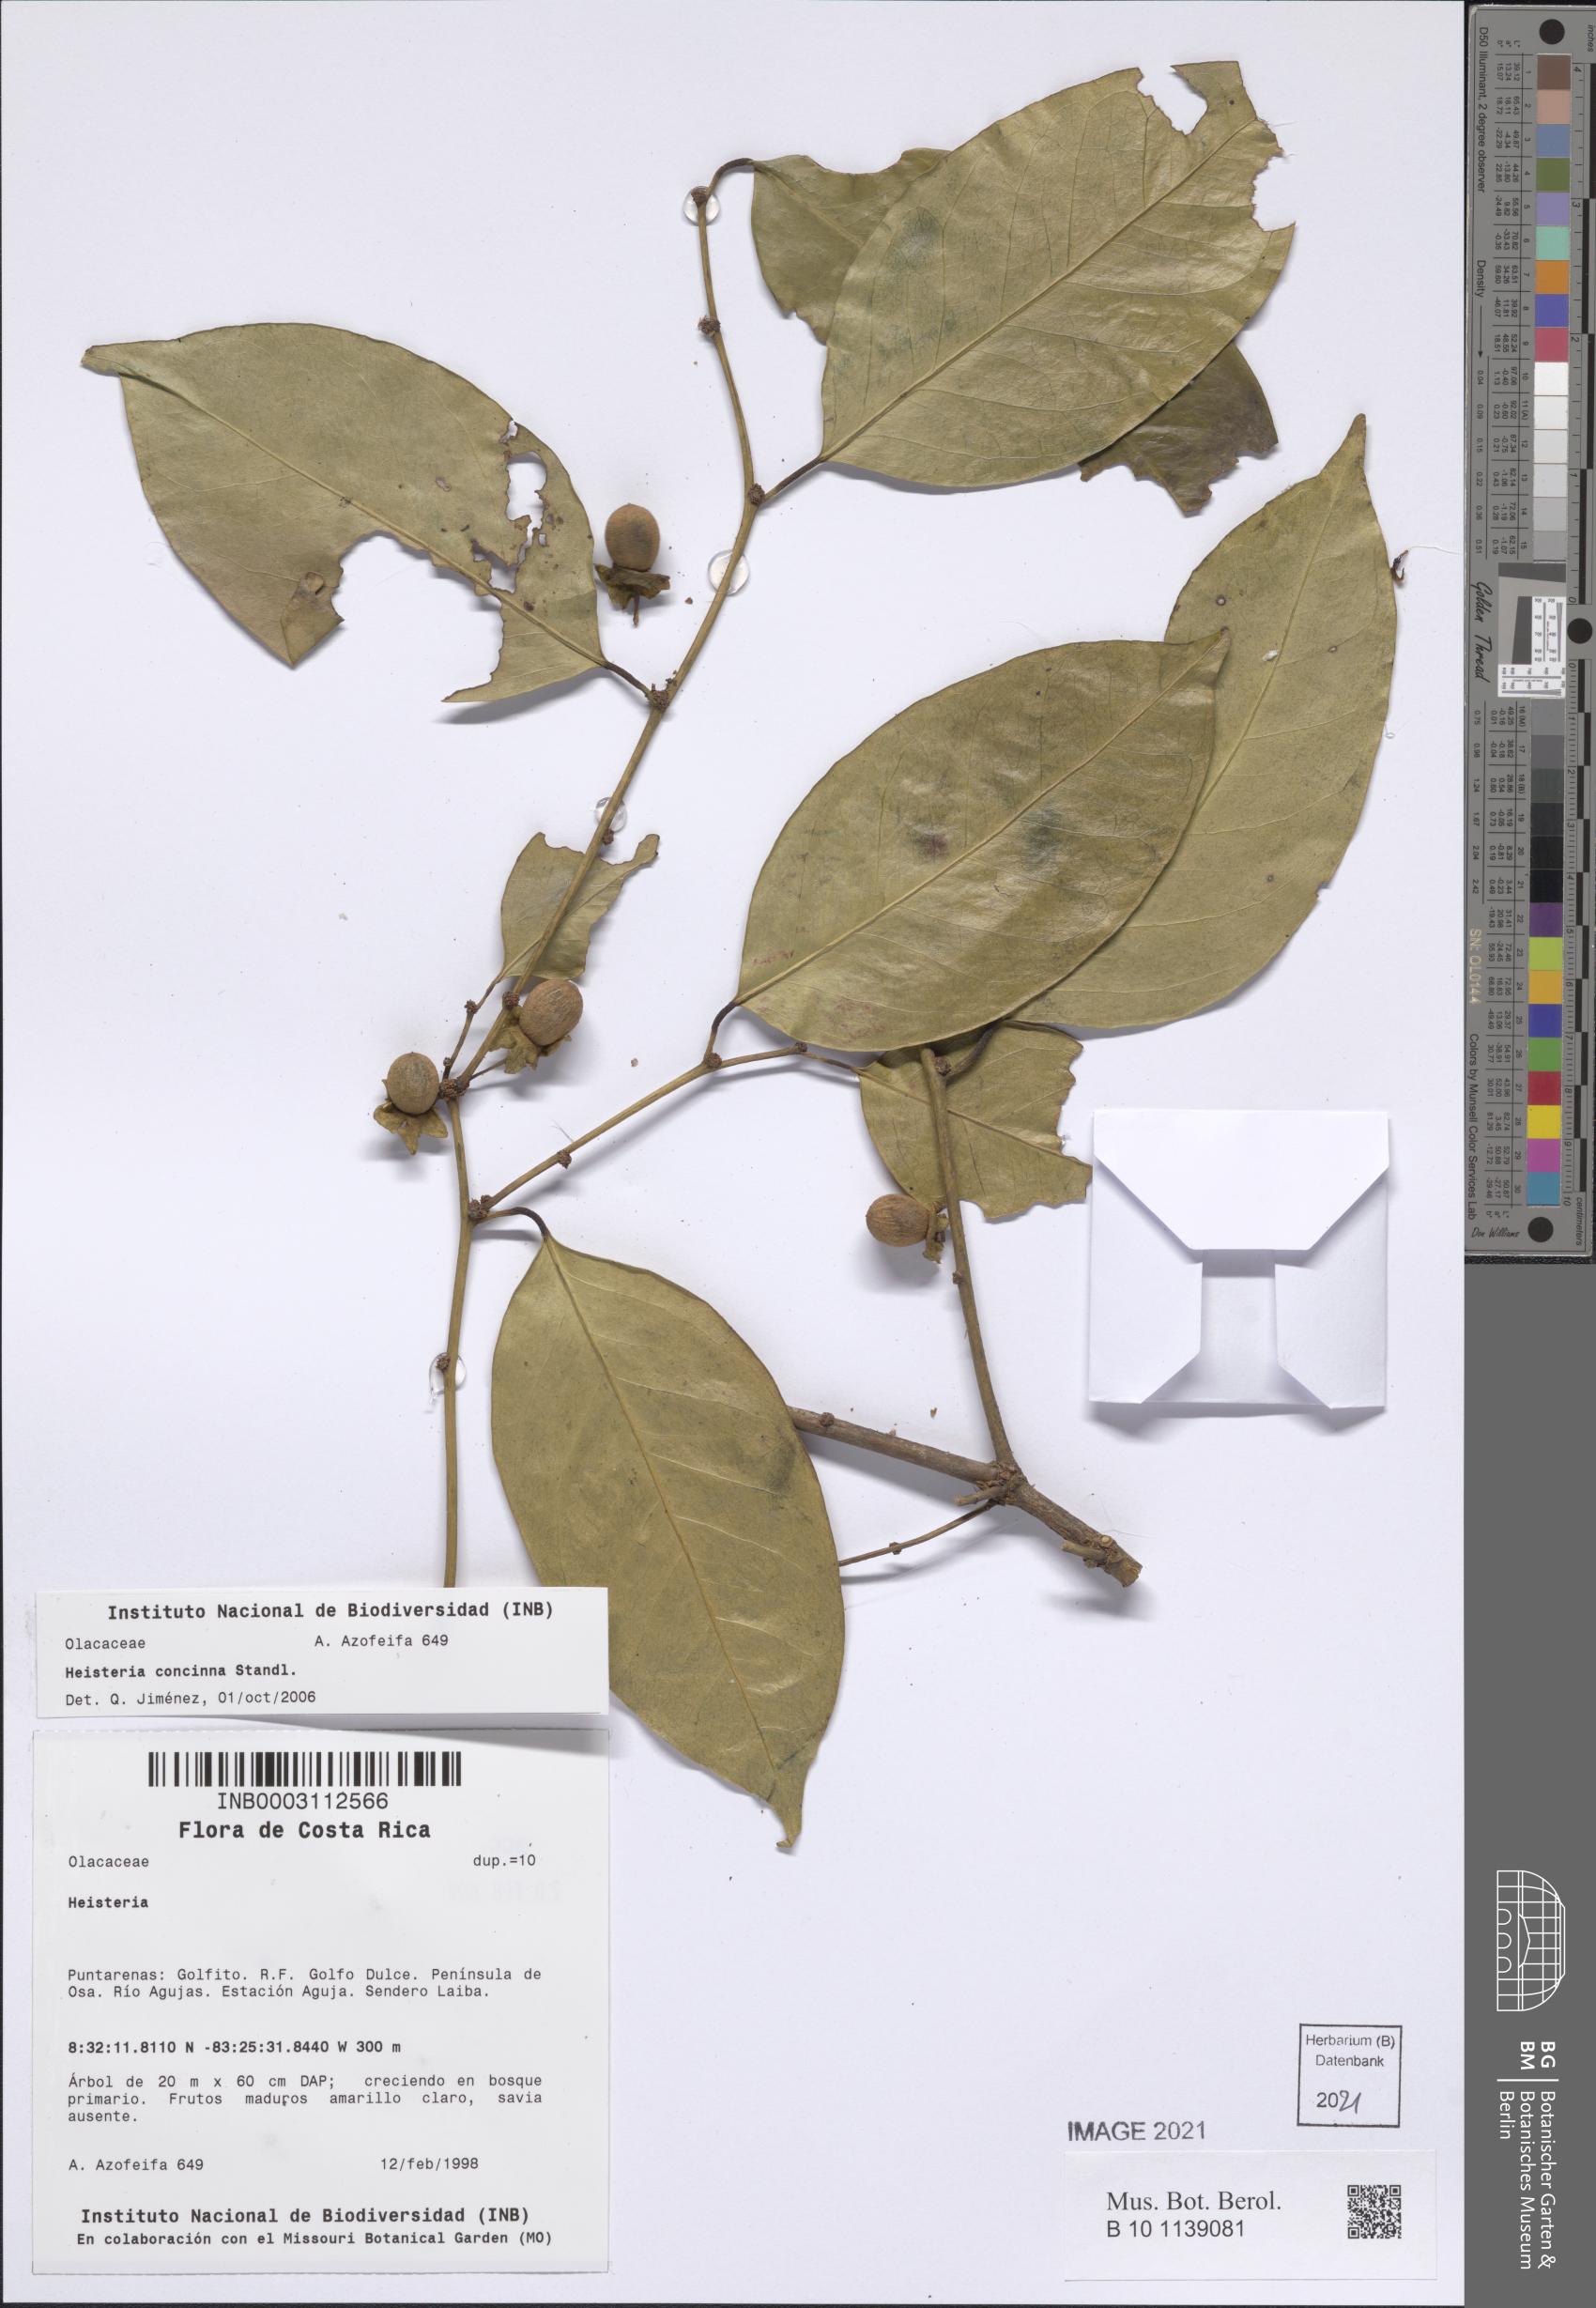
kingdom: Plantae
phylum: Tracheophyta
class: Magnoliopsida
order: Santalales
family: Erythropalaceae
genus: Heisteria
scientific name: Heisteria concinna
